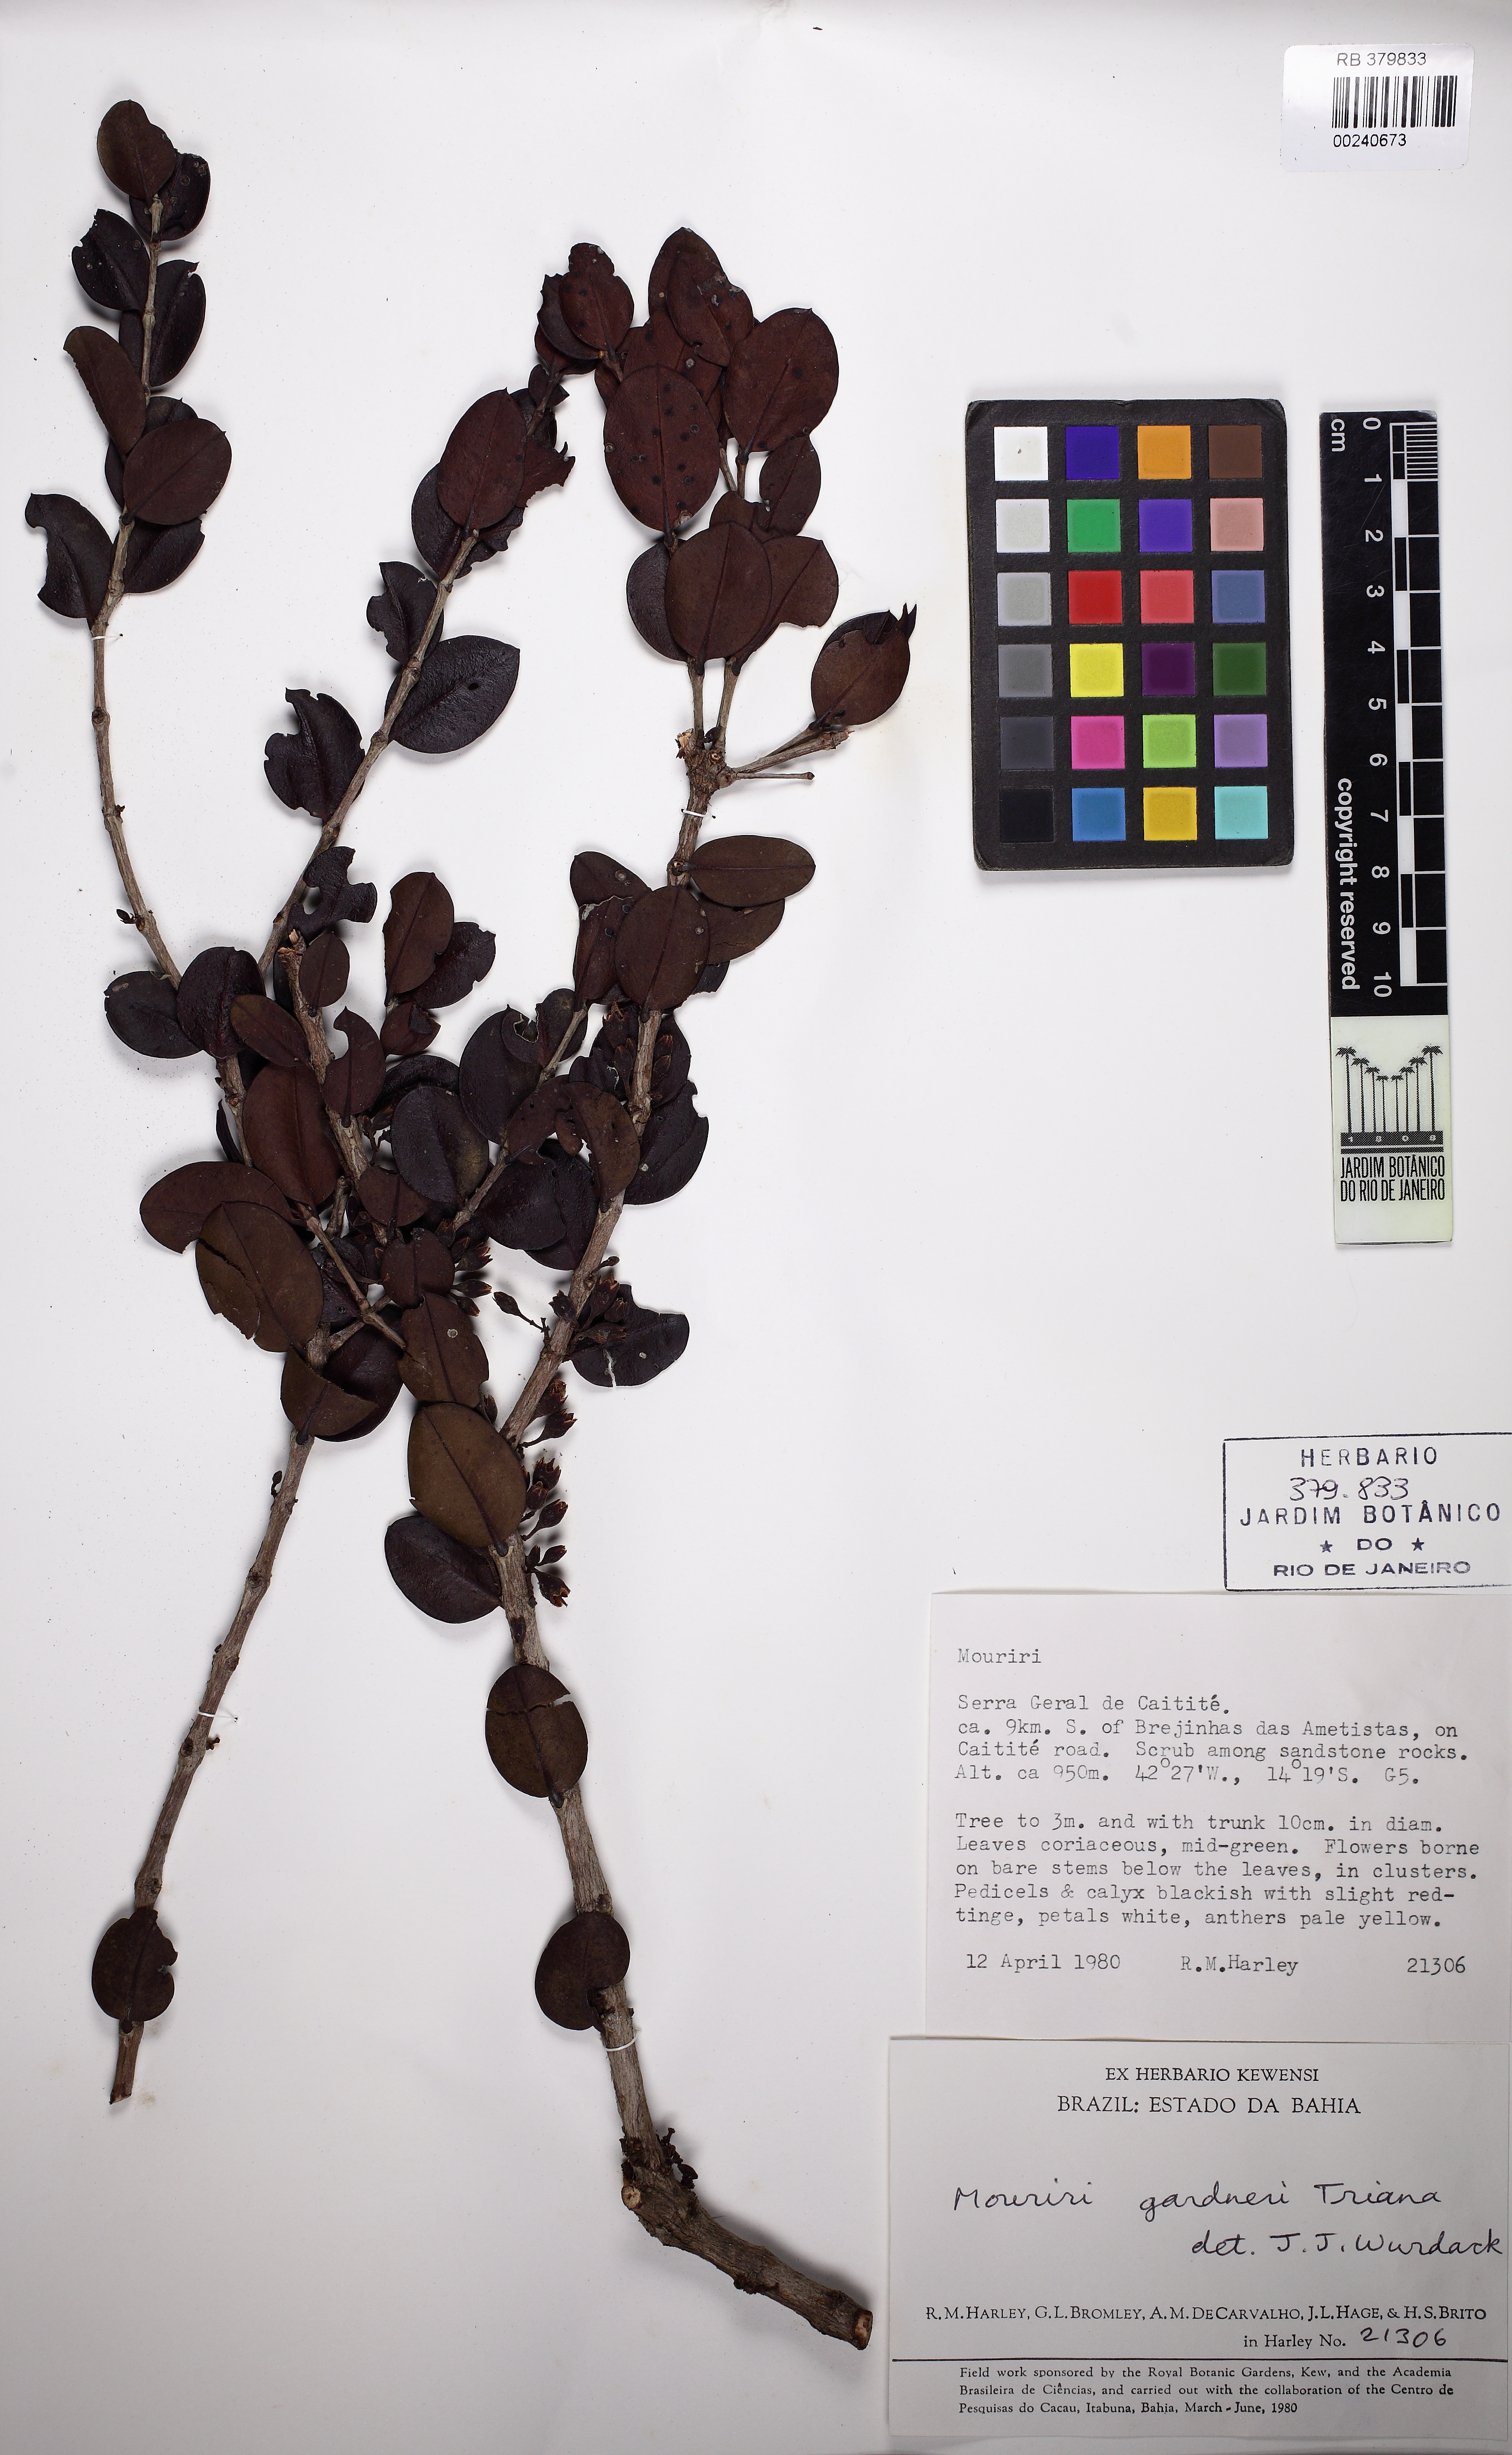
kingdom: Plantae
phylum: Tracheophyta
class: Magnoliopsida
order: Myrtales
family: Melastomataceae
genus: Mouriri
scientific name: Mouriri gardneri
